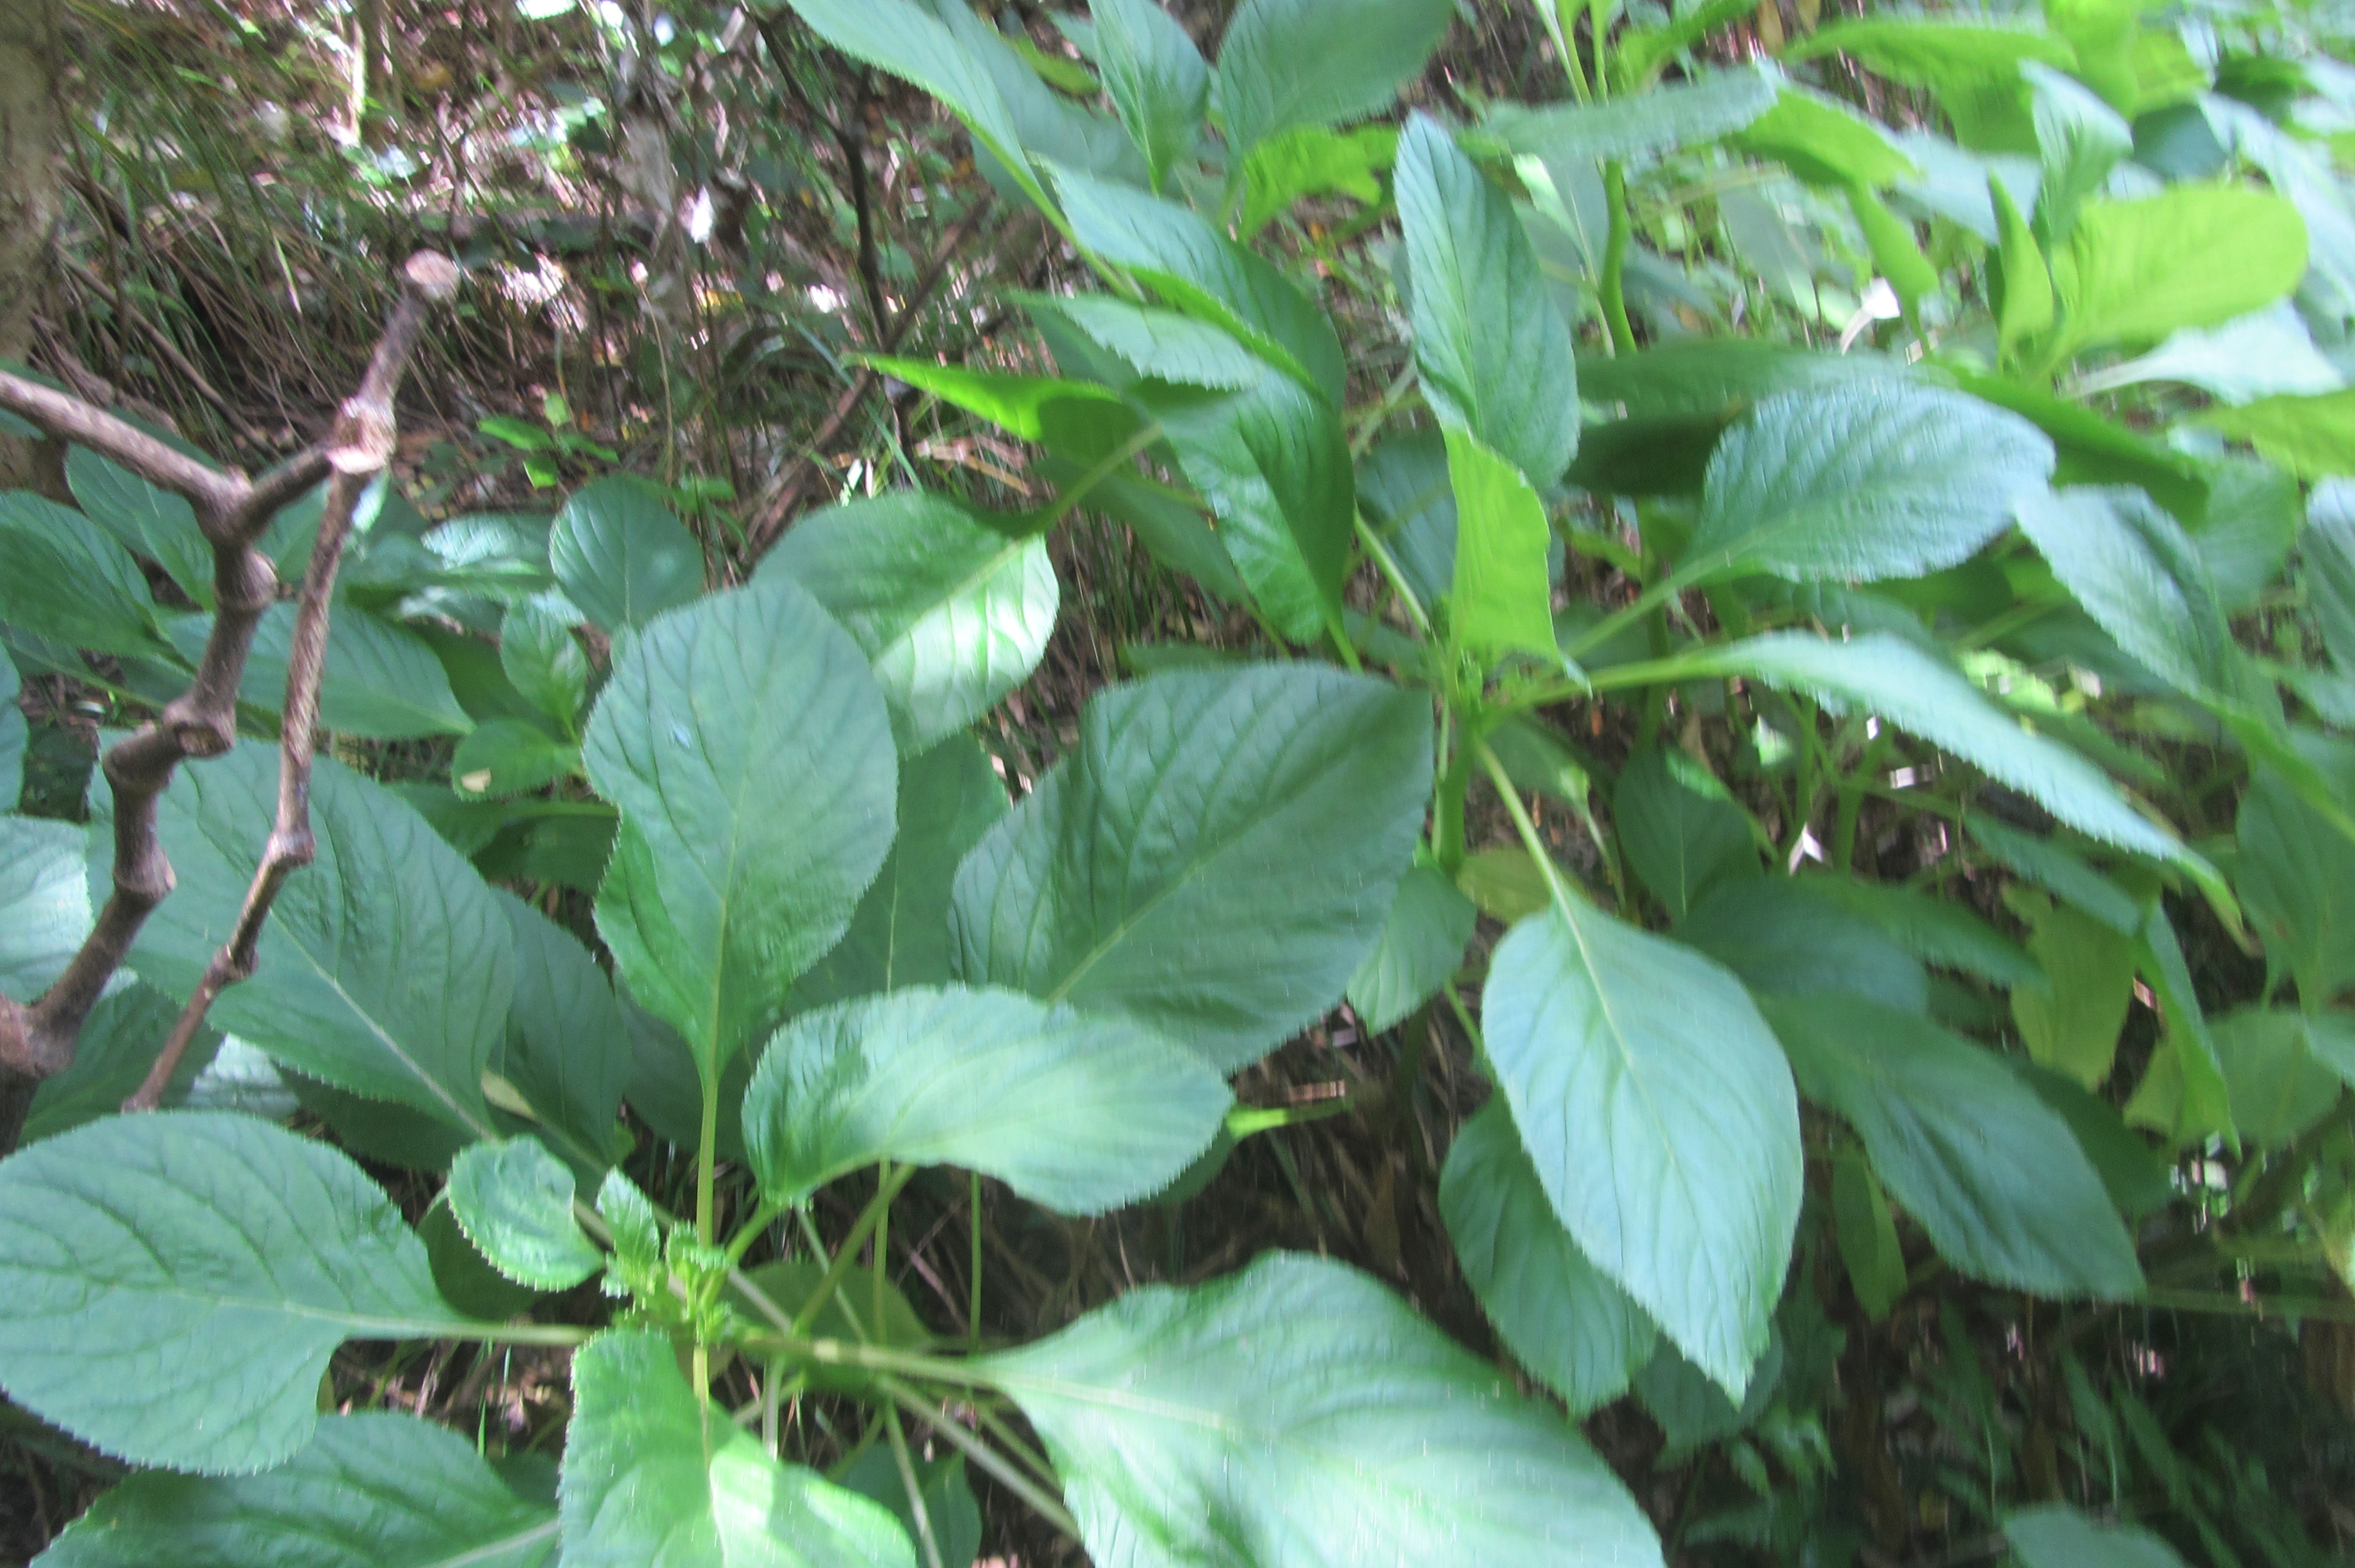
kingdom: Plantae
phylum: Tracheophyta
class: Polypodiopsida
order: Polypodiales
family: Dennstaedtiaceae
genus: Histiopteris
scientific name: Histiopteris incisa
